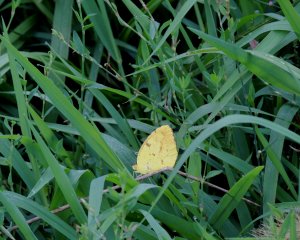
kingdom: Animalia
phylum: Arthropoda
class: Insecta
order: Lepidoptera
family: Pieridae
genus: Abaeis
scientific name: Abaeis nicippe
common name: Sleepy Orange
